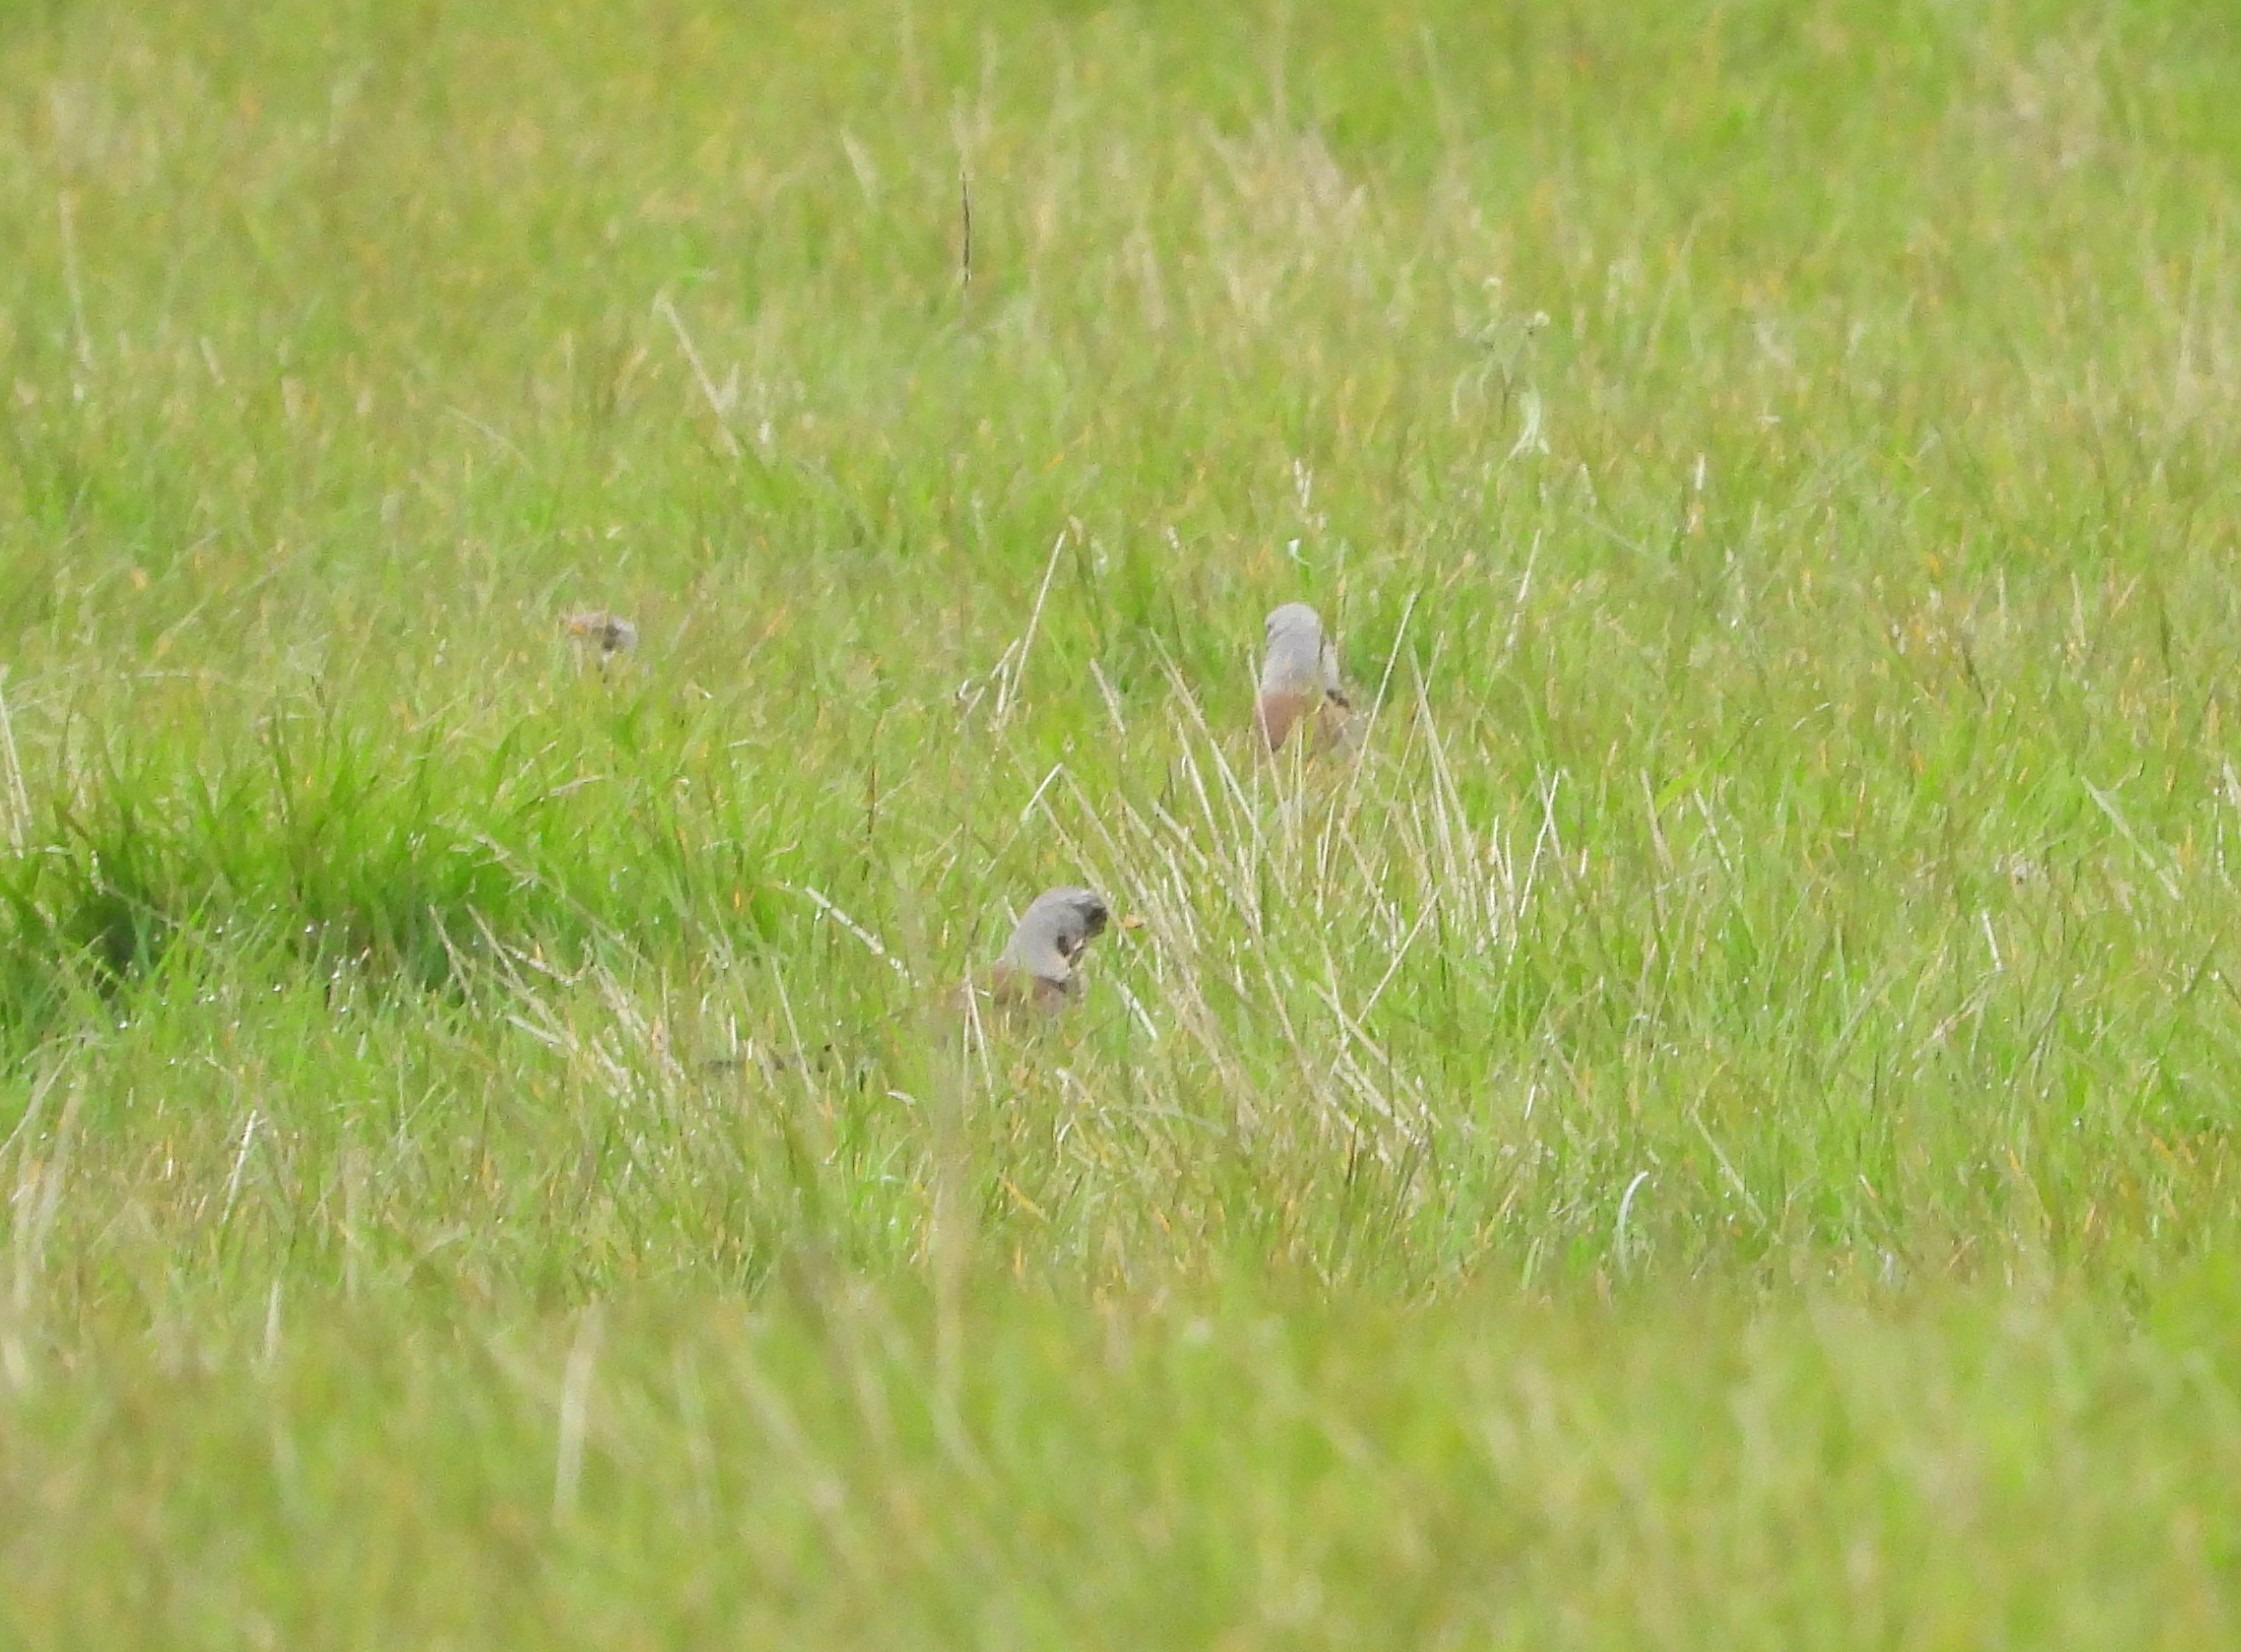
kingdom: Animalia
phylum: Chordata
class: Aves
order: Passeriformes
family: Turdidae
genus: Turdus
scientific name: Turdus pilaris
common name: Sjagger
